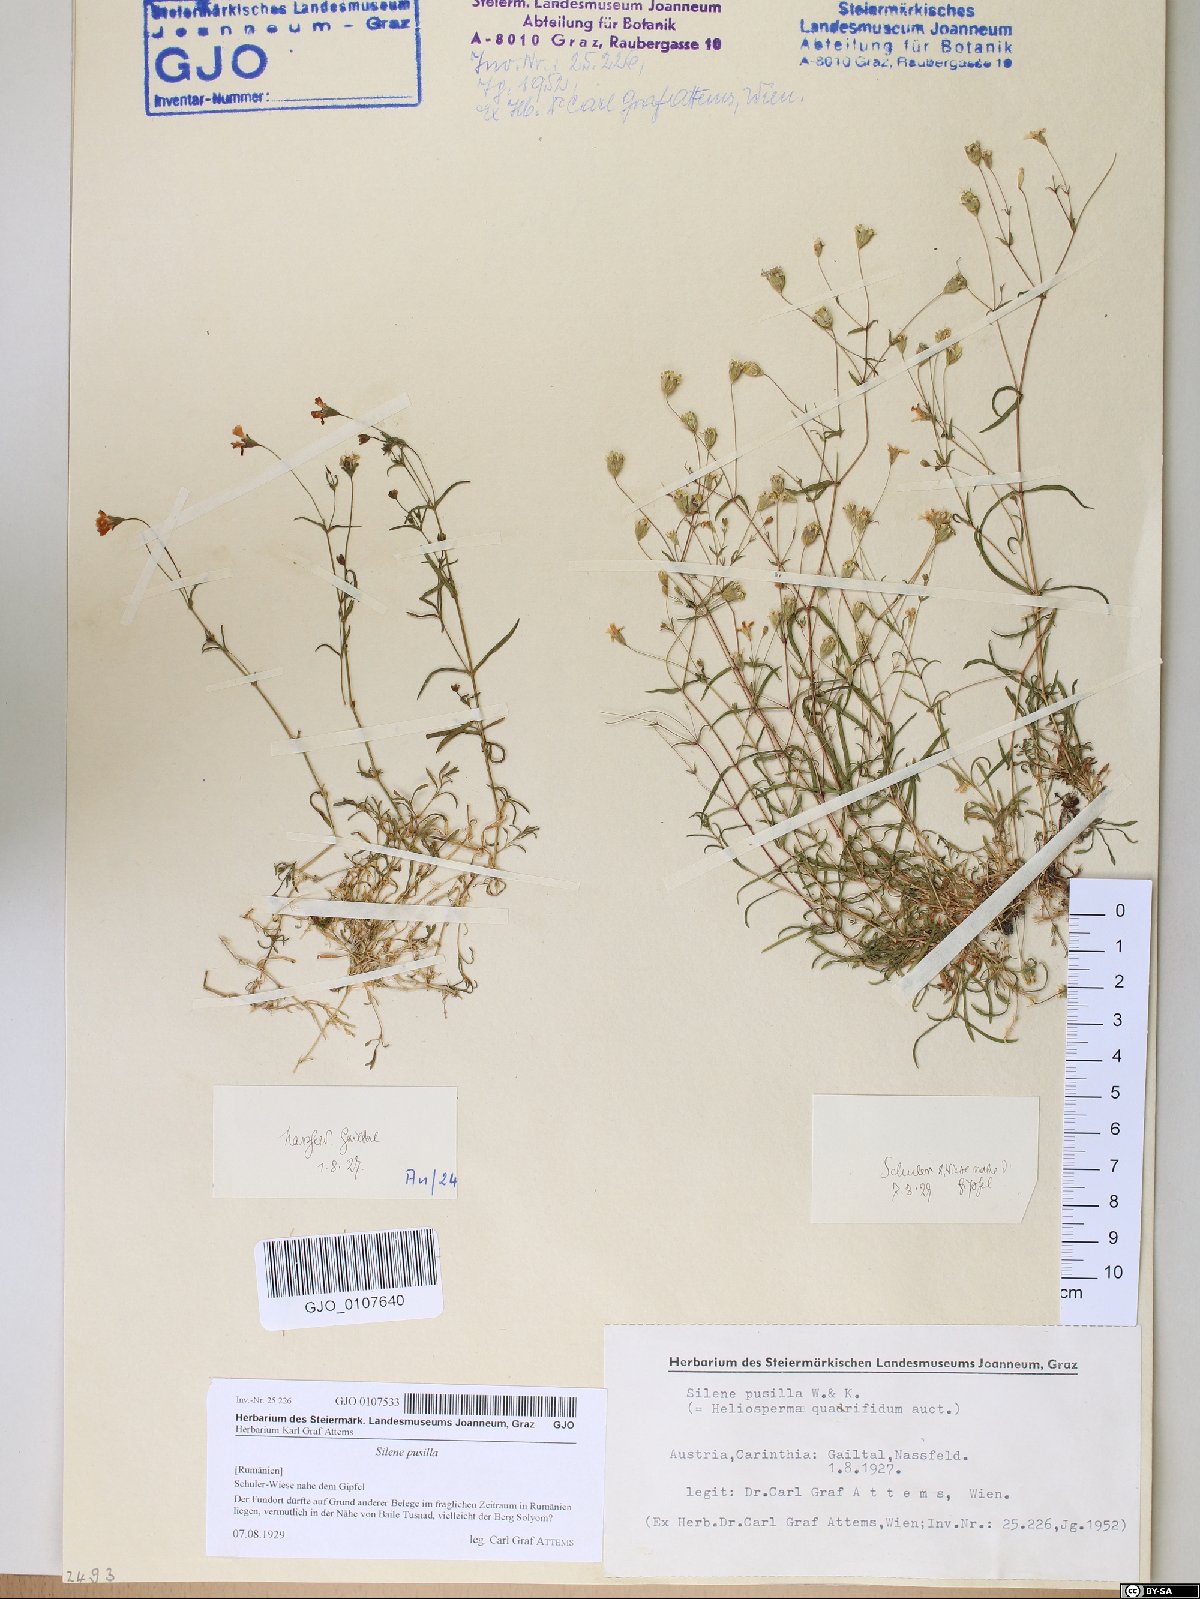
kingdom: Plantae
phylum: Tracheophyta
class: Magnoliopsida
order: Caryophyllales
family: Caryophyllaceae
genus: Heliosperma
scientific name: Heliosperma pusillum
